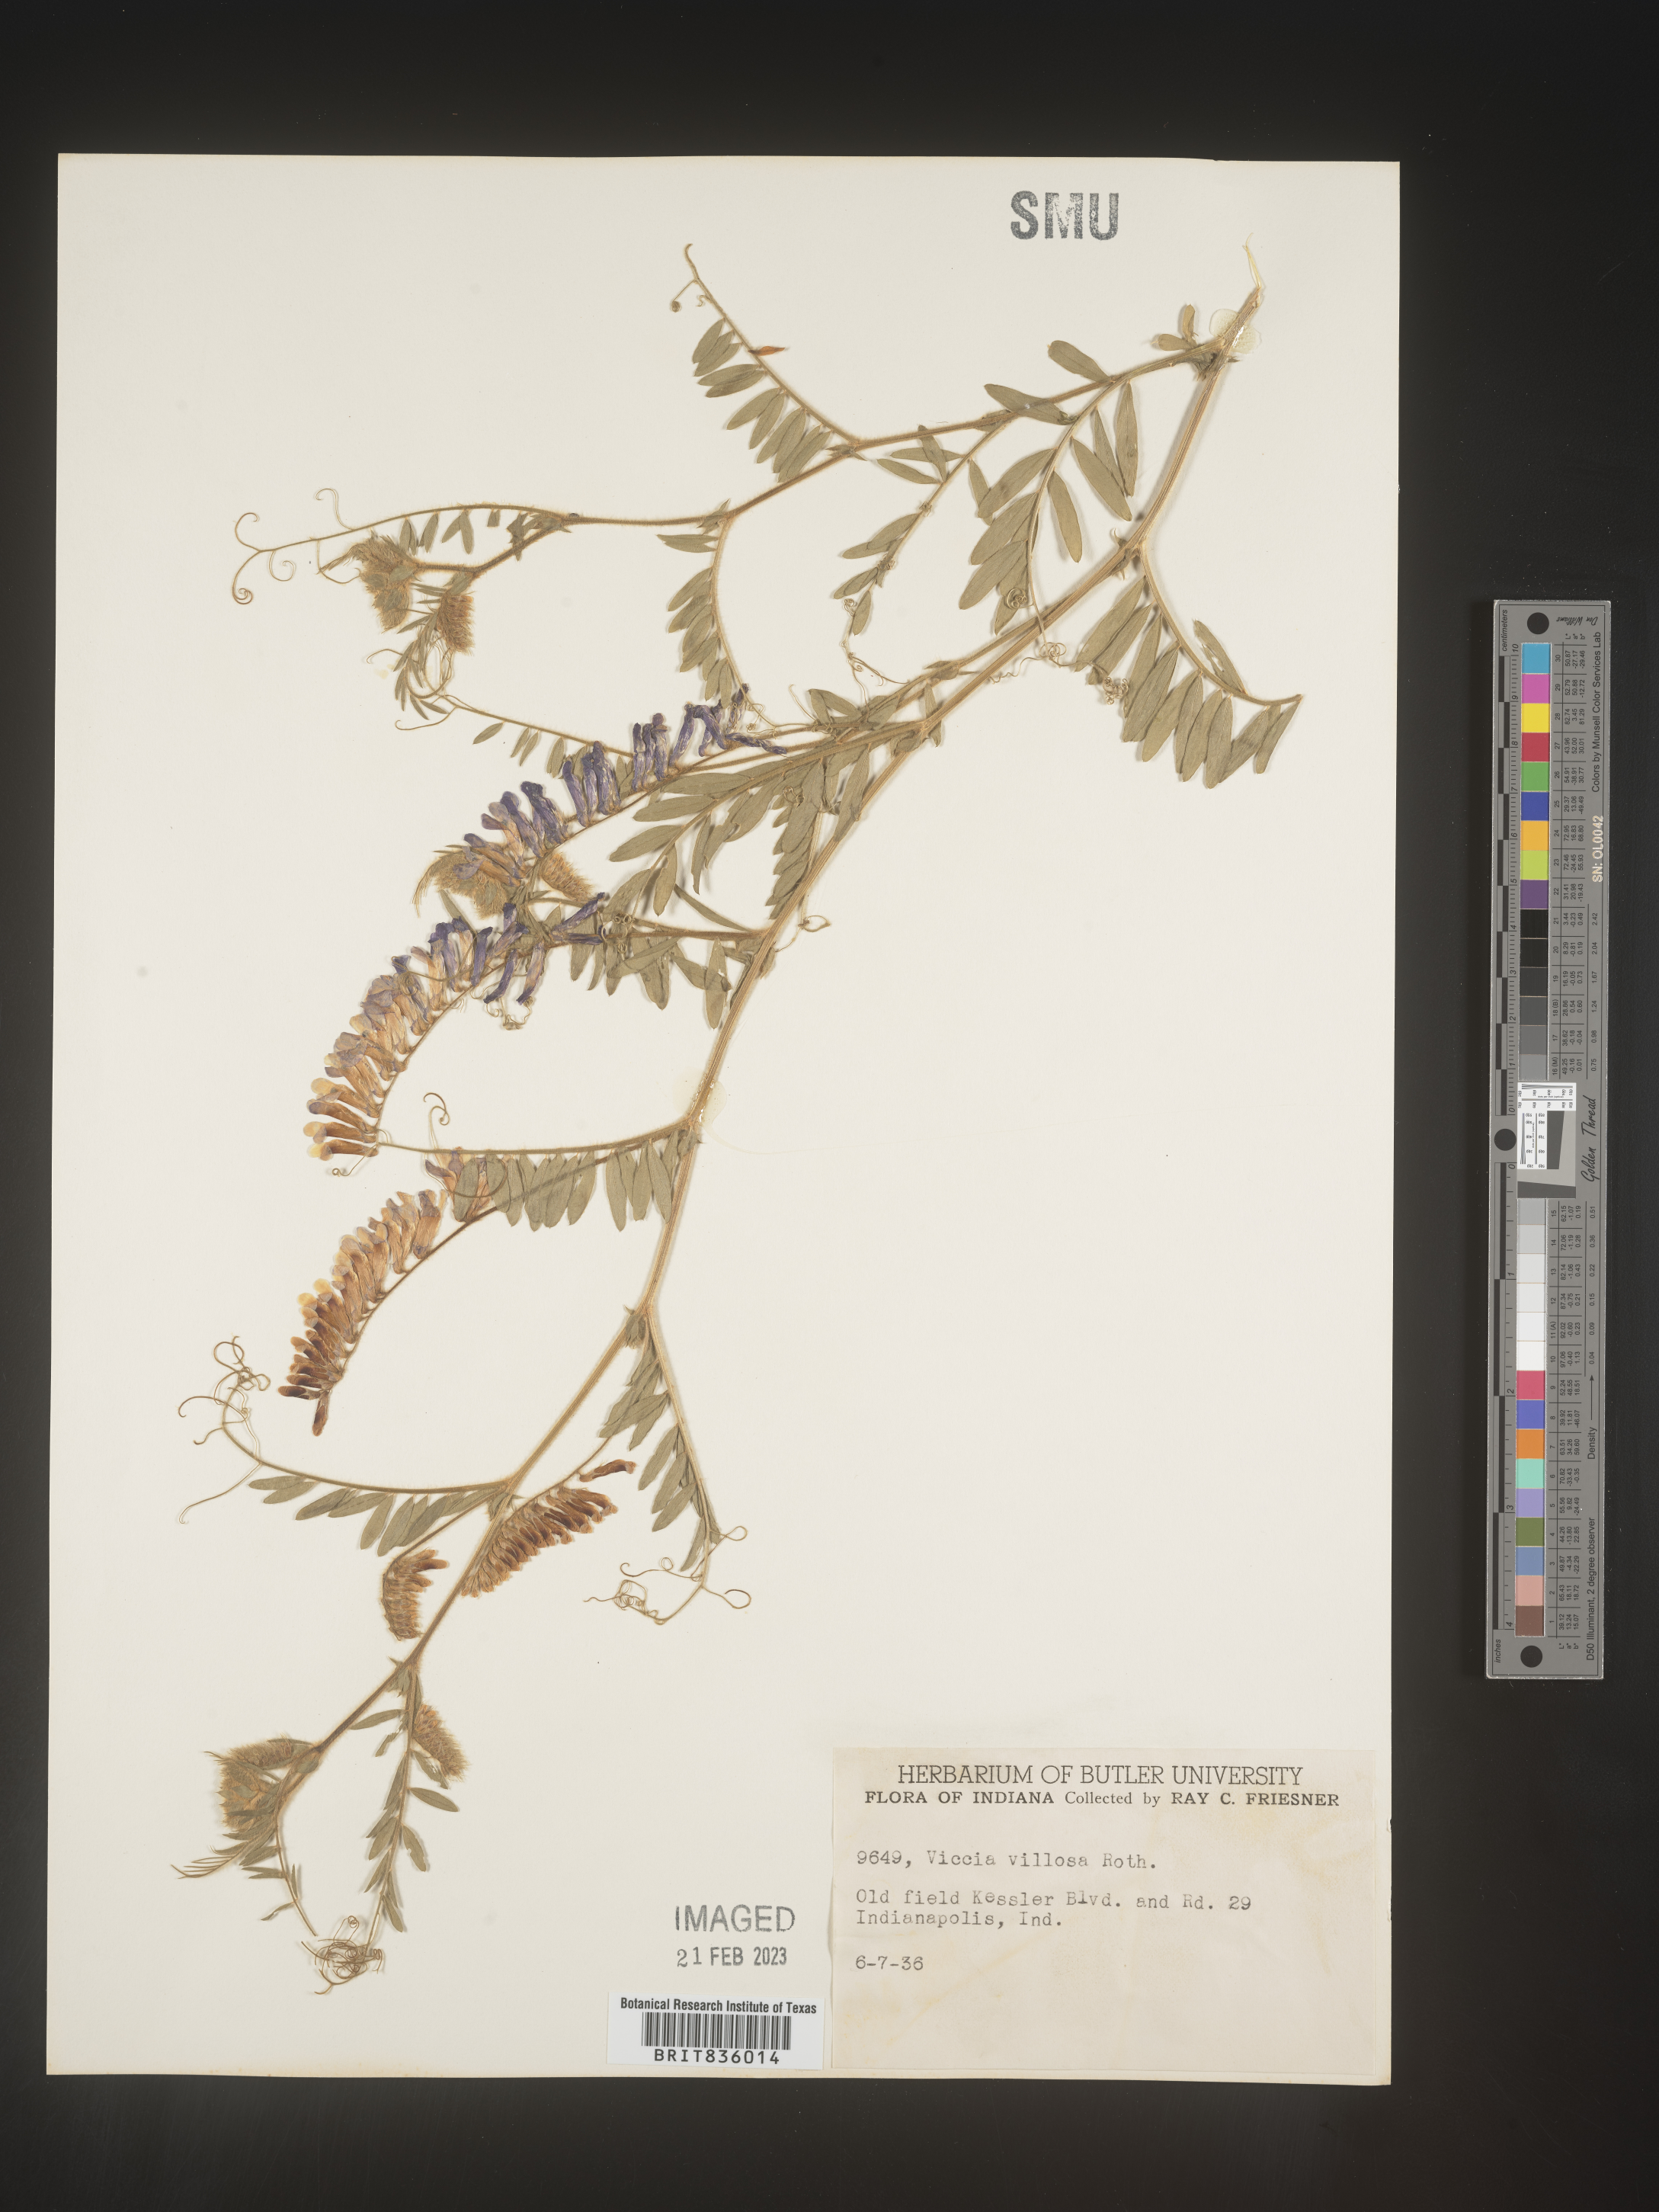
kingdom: Plantae
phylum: Tracheophyta
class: Magnoliopsida
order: Fabales
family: Fabaceae
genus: Vicia
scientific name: Vicia villosa
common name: Fodder vetch
